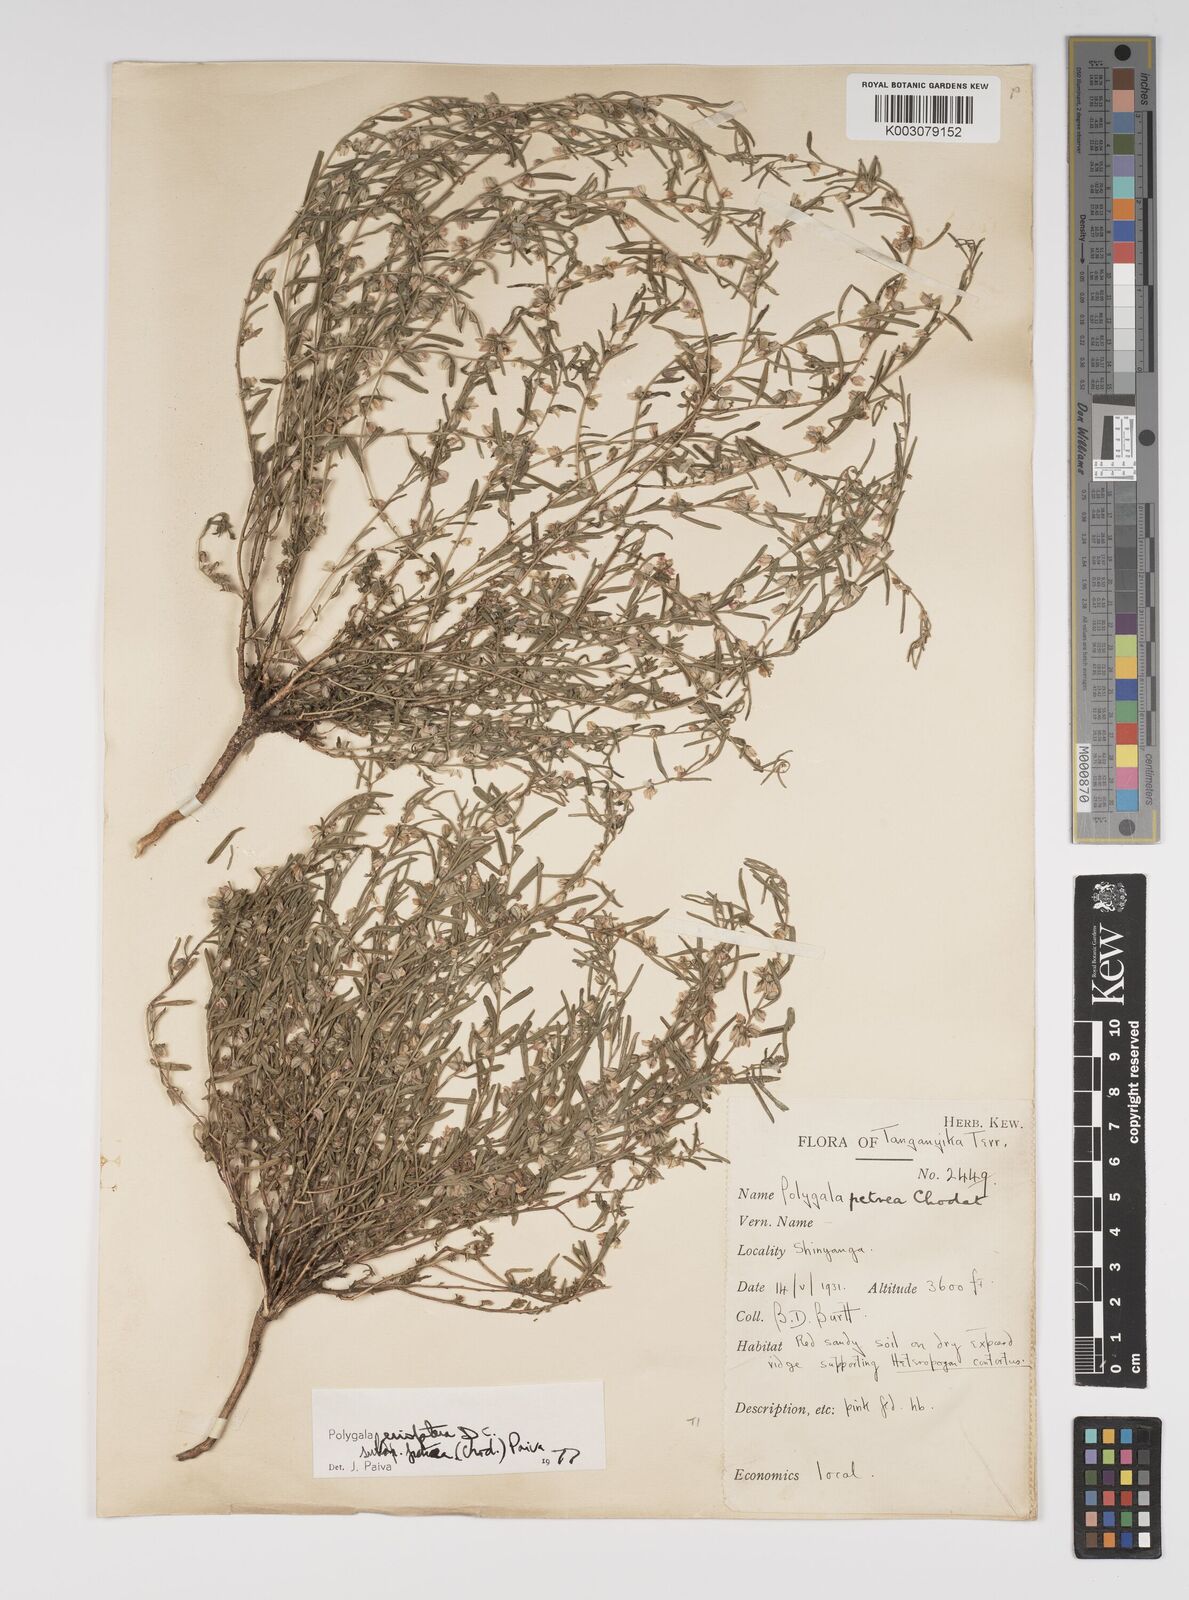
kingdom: Plantae
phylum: Tracheophyta
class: Magnoliopsida
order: Fabales
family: Polygalaceae
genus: Polygala
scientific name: Polygala erioptera
